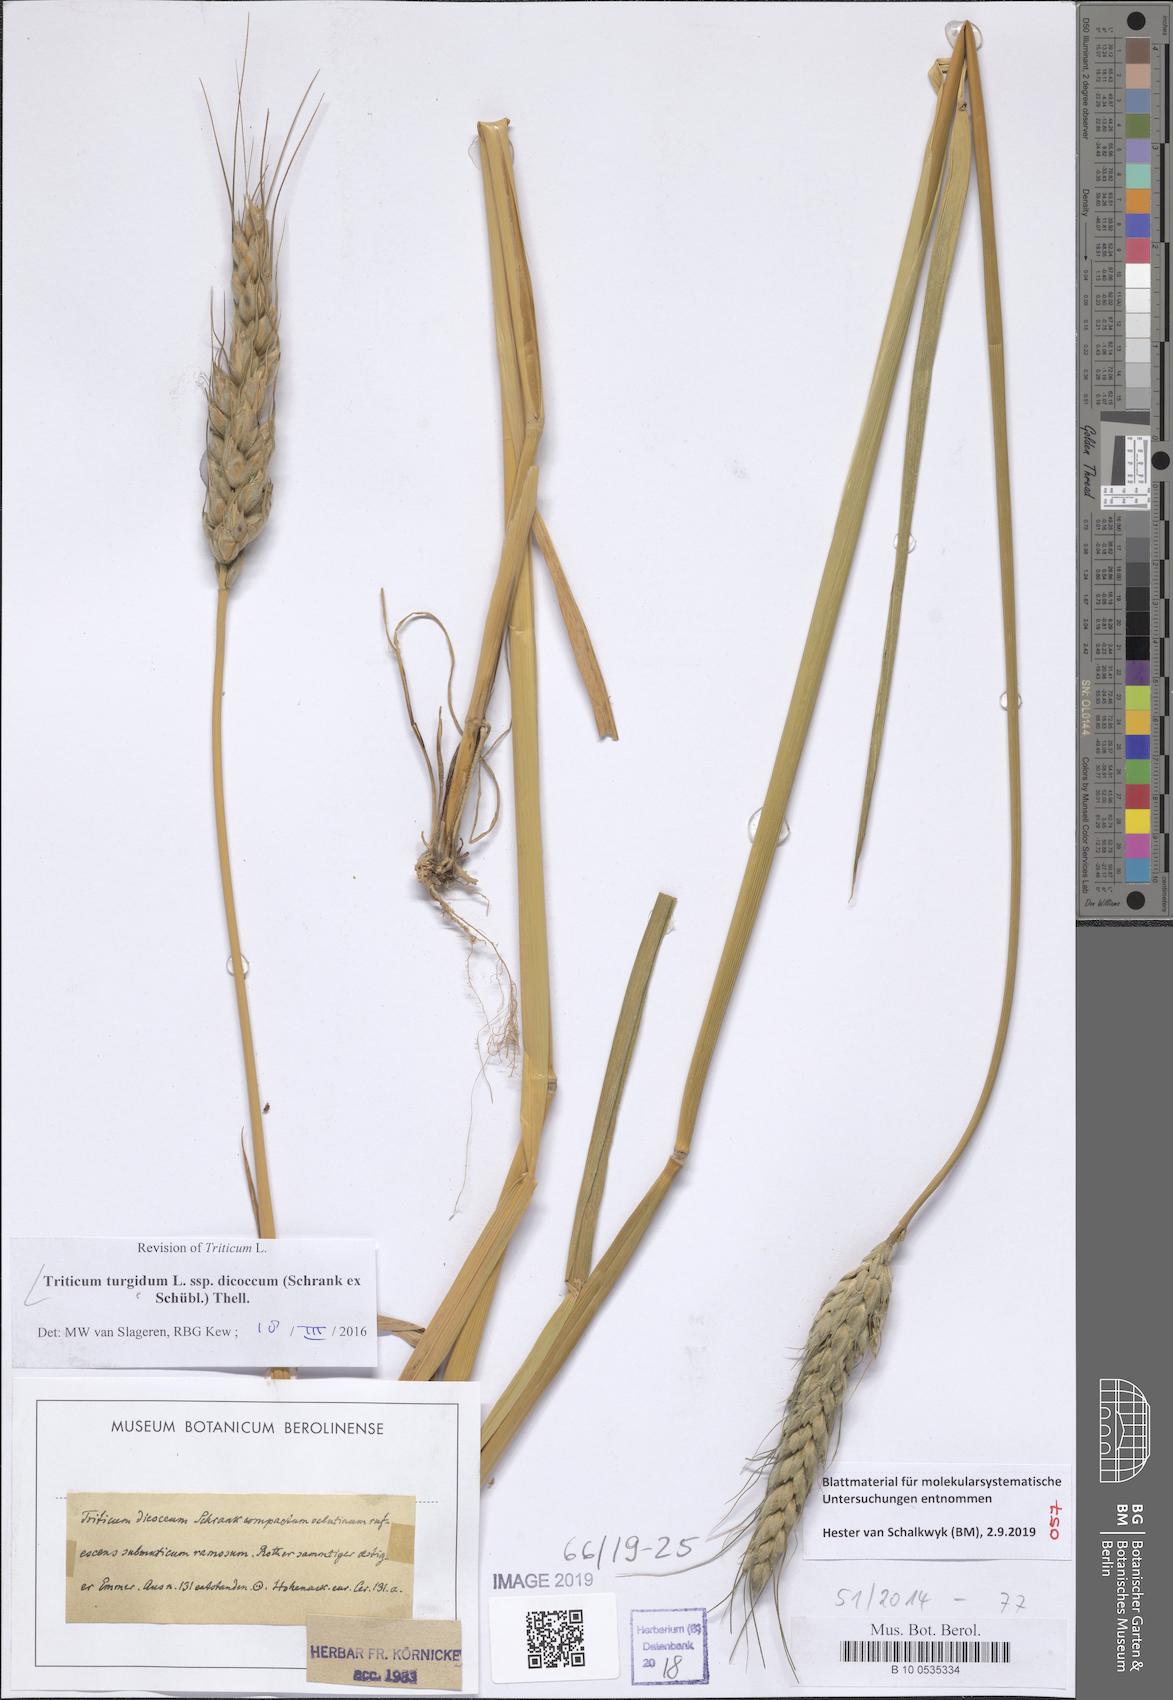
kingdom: Plantae
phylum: Tracheophyta
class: Liliopsida
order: Poales
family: Poaceae
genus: Triticum
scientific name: Triticum turgidum
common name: Rivet wheat
